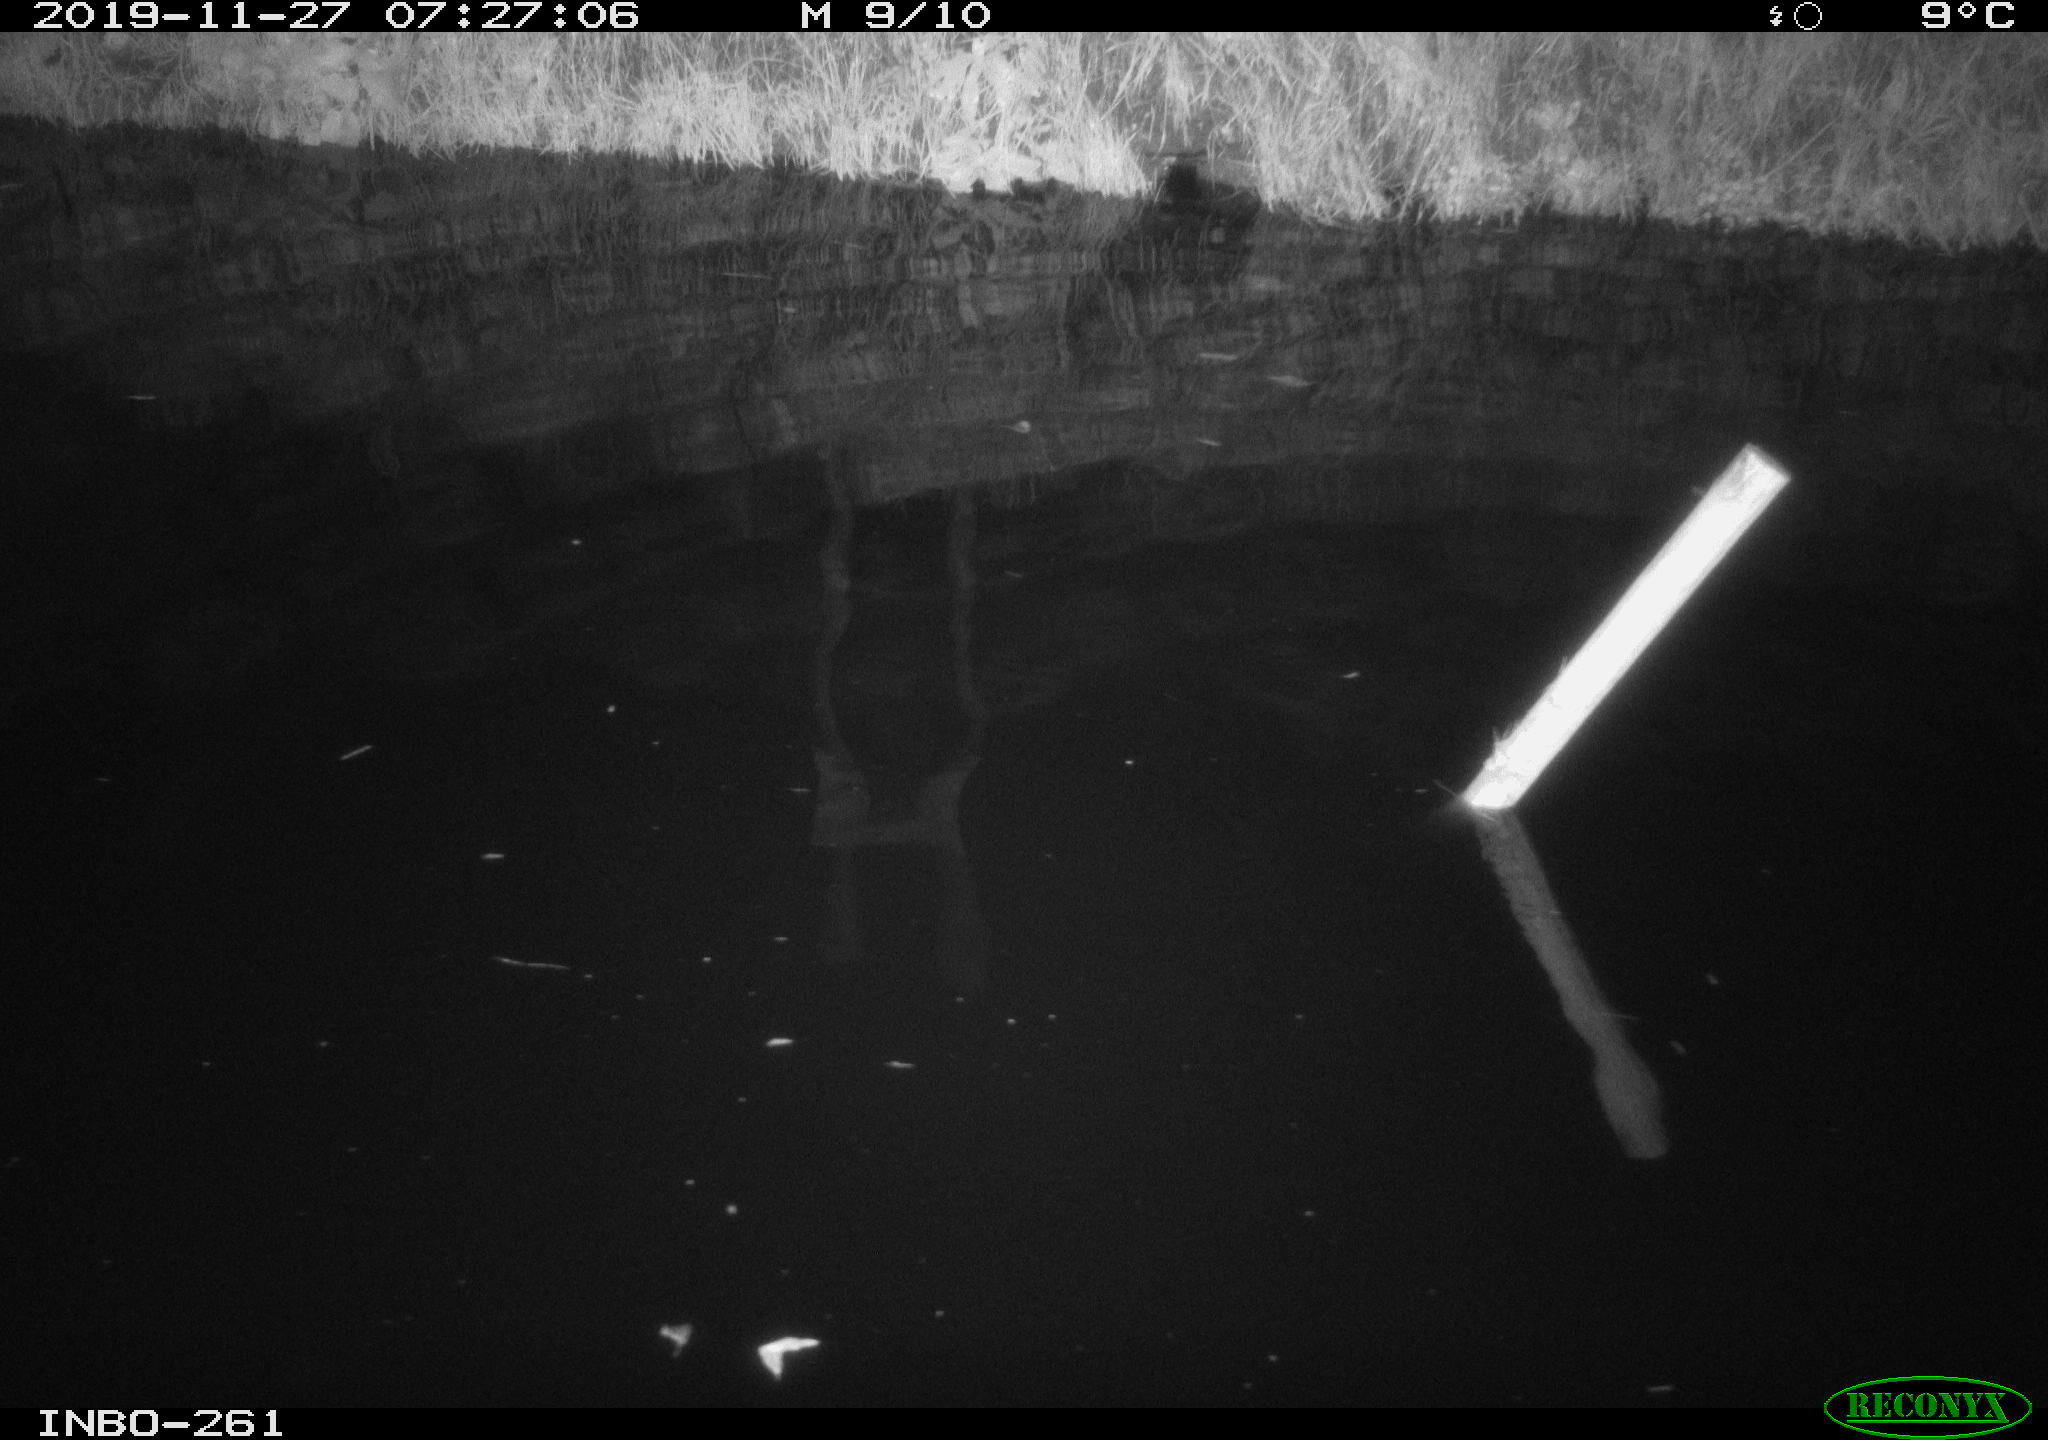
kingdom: Animalia
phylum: Chordata
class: Aves
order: Anseriformes
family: Anatidae
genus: Anas
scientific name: Anas platyrhynchos
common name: Mallard
